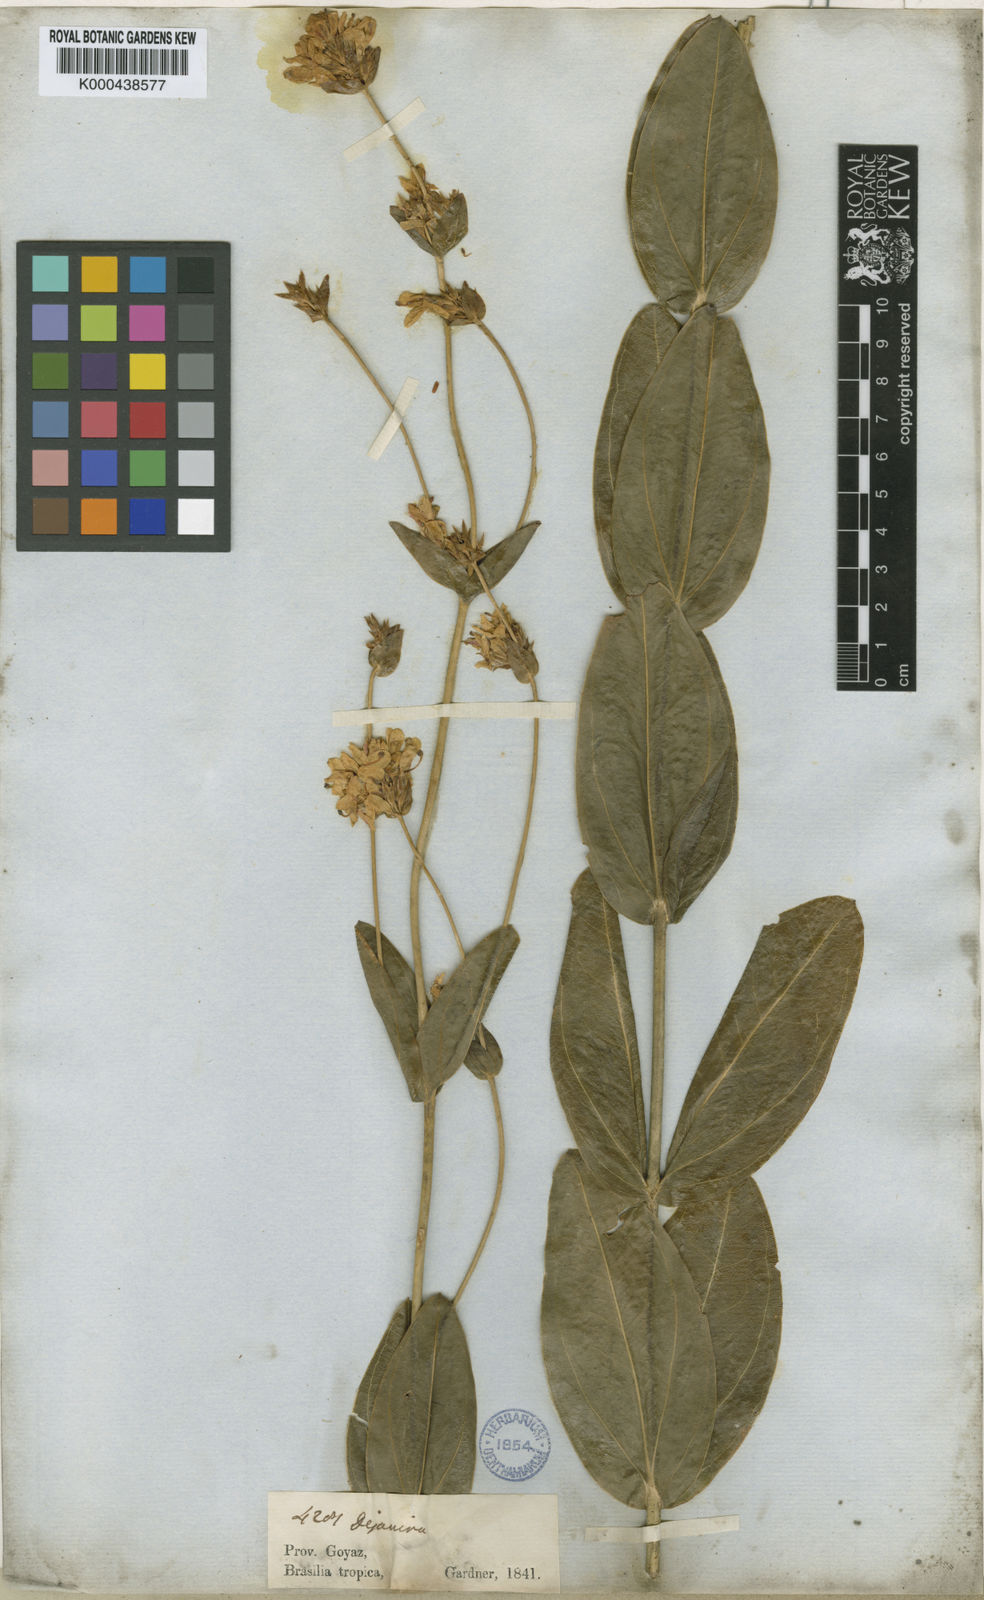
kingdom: Plantae
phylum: Tracheophyta
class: Magnoliopsida
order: Gentianales
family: Gentianaceae
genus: Deianira
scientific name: Deianira nervosa
